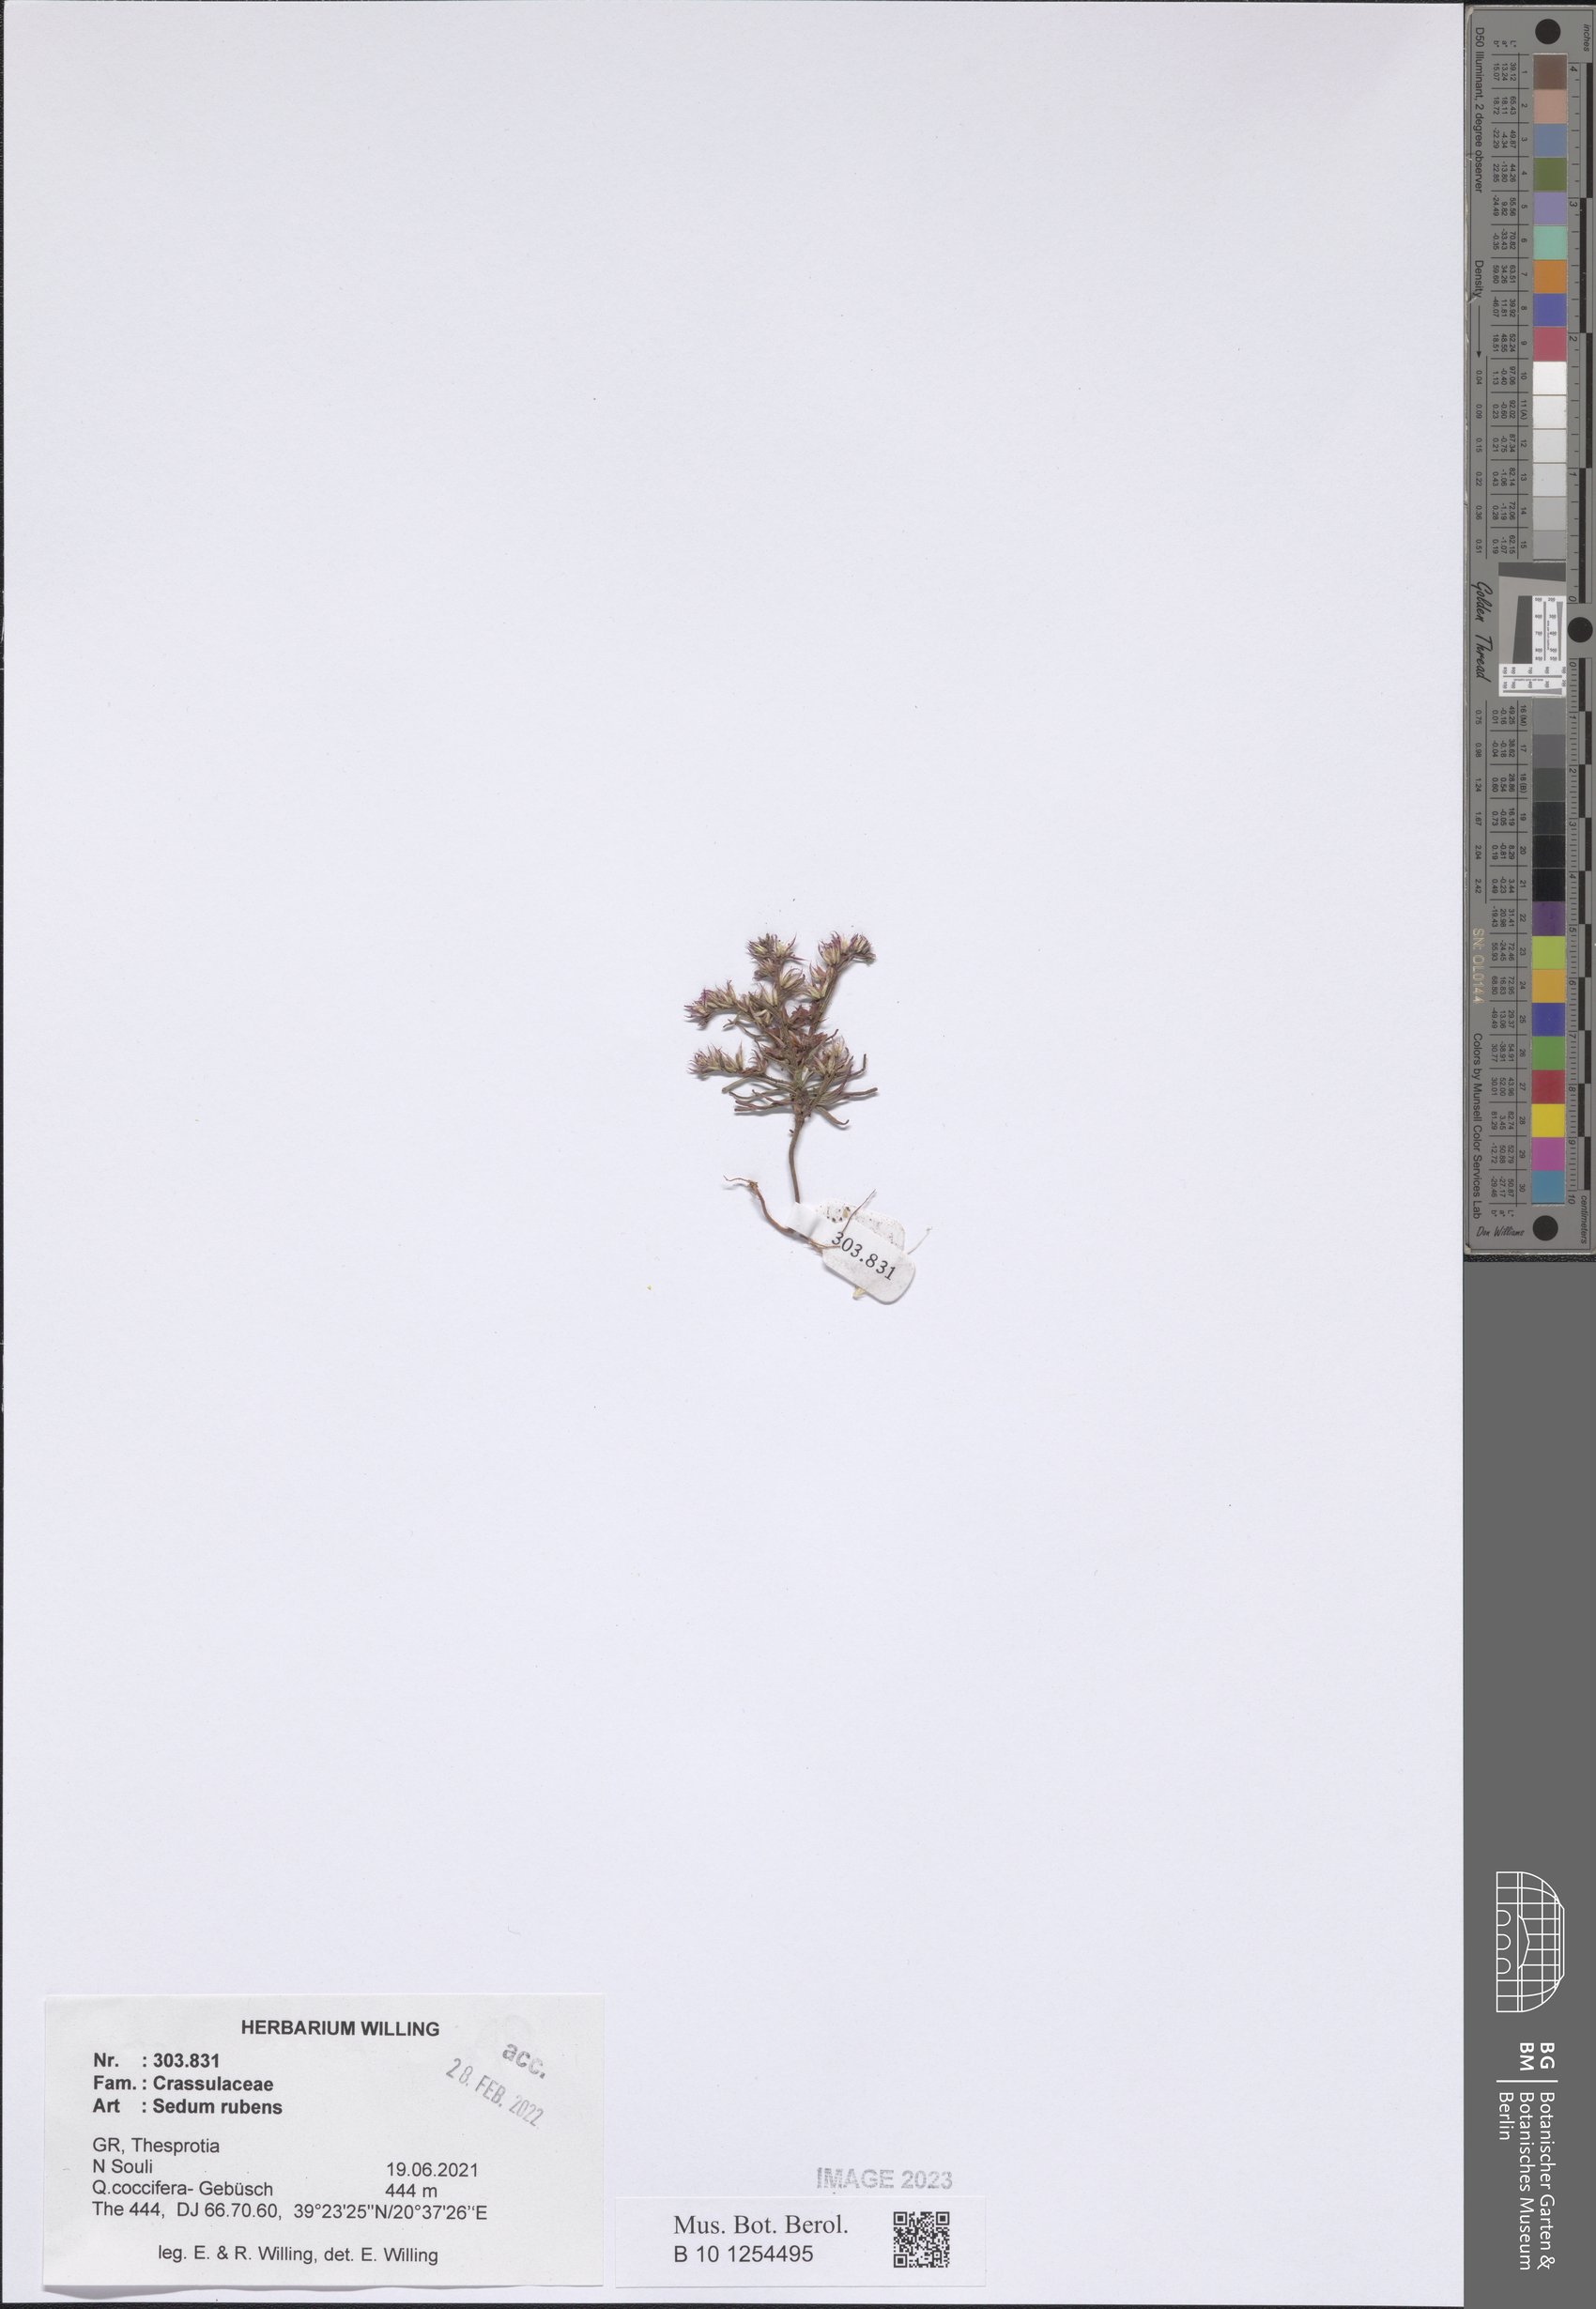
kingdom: Plantae
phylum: Tracheophyta
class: Magnoliopsida
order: Saxifragales
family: Crassulaceae
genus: Sedum
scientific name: Sedum rubens
